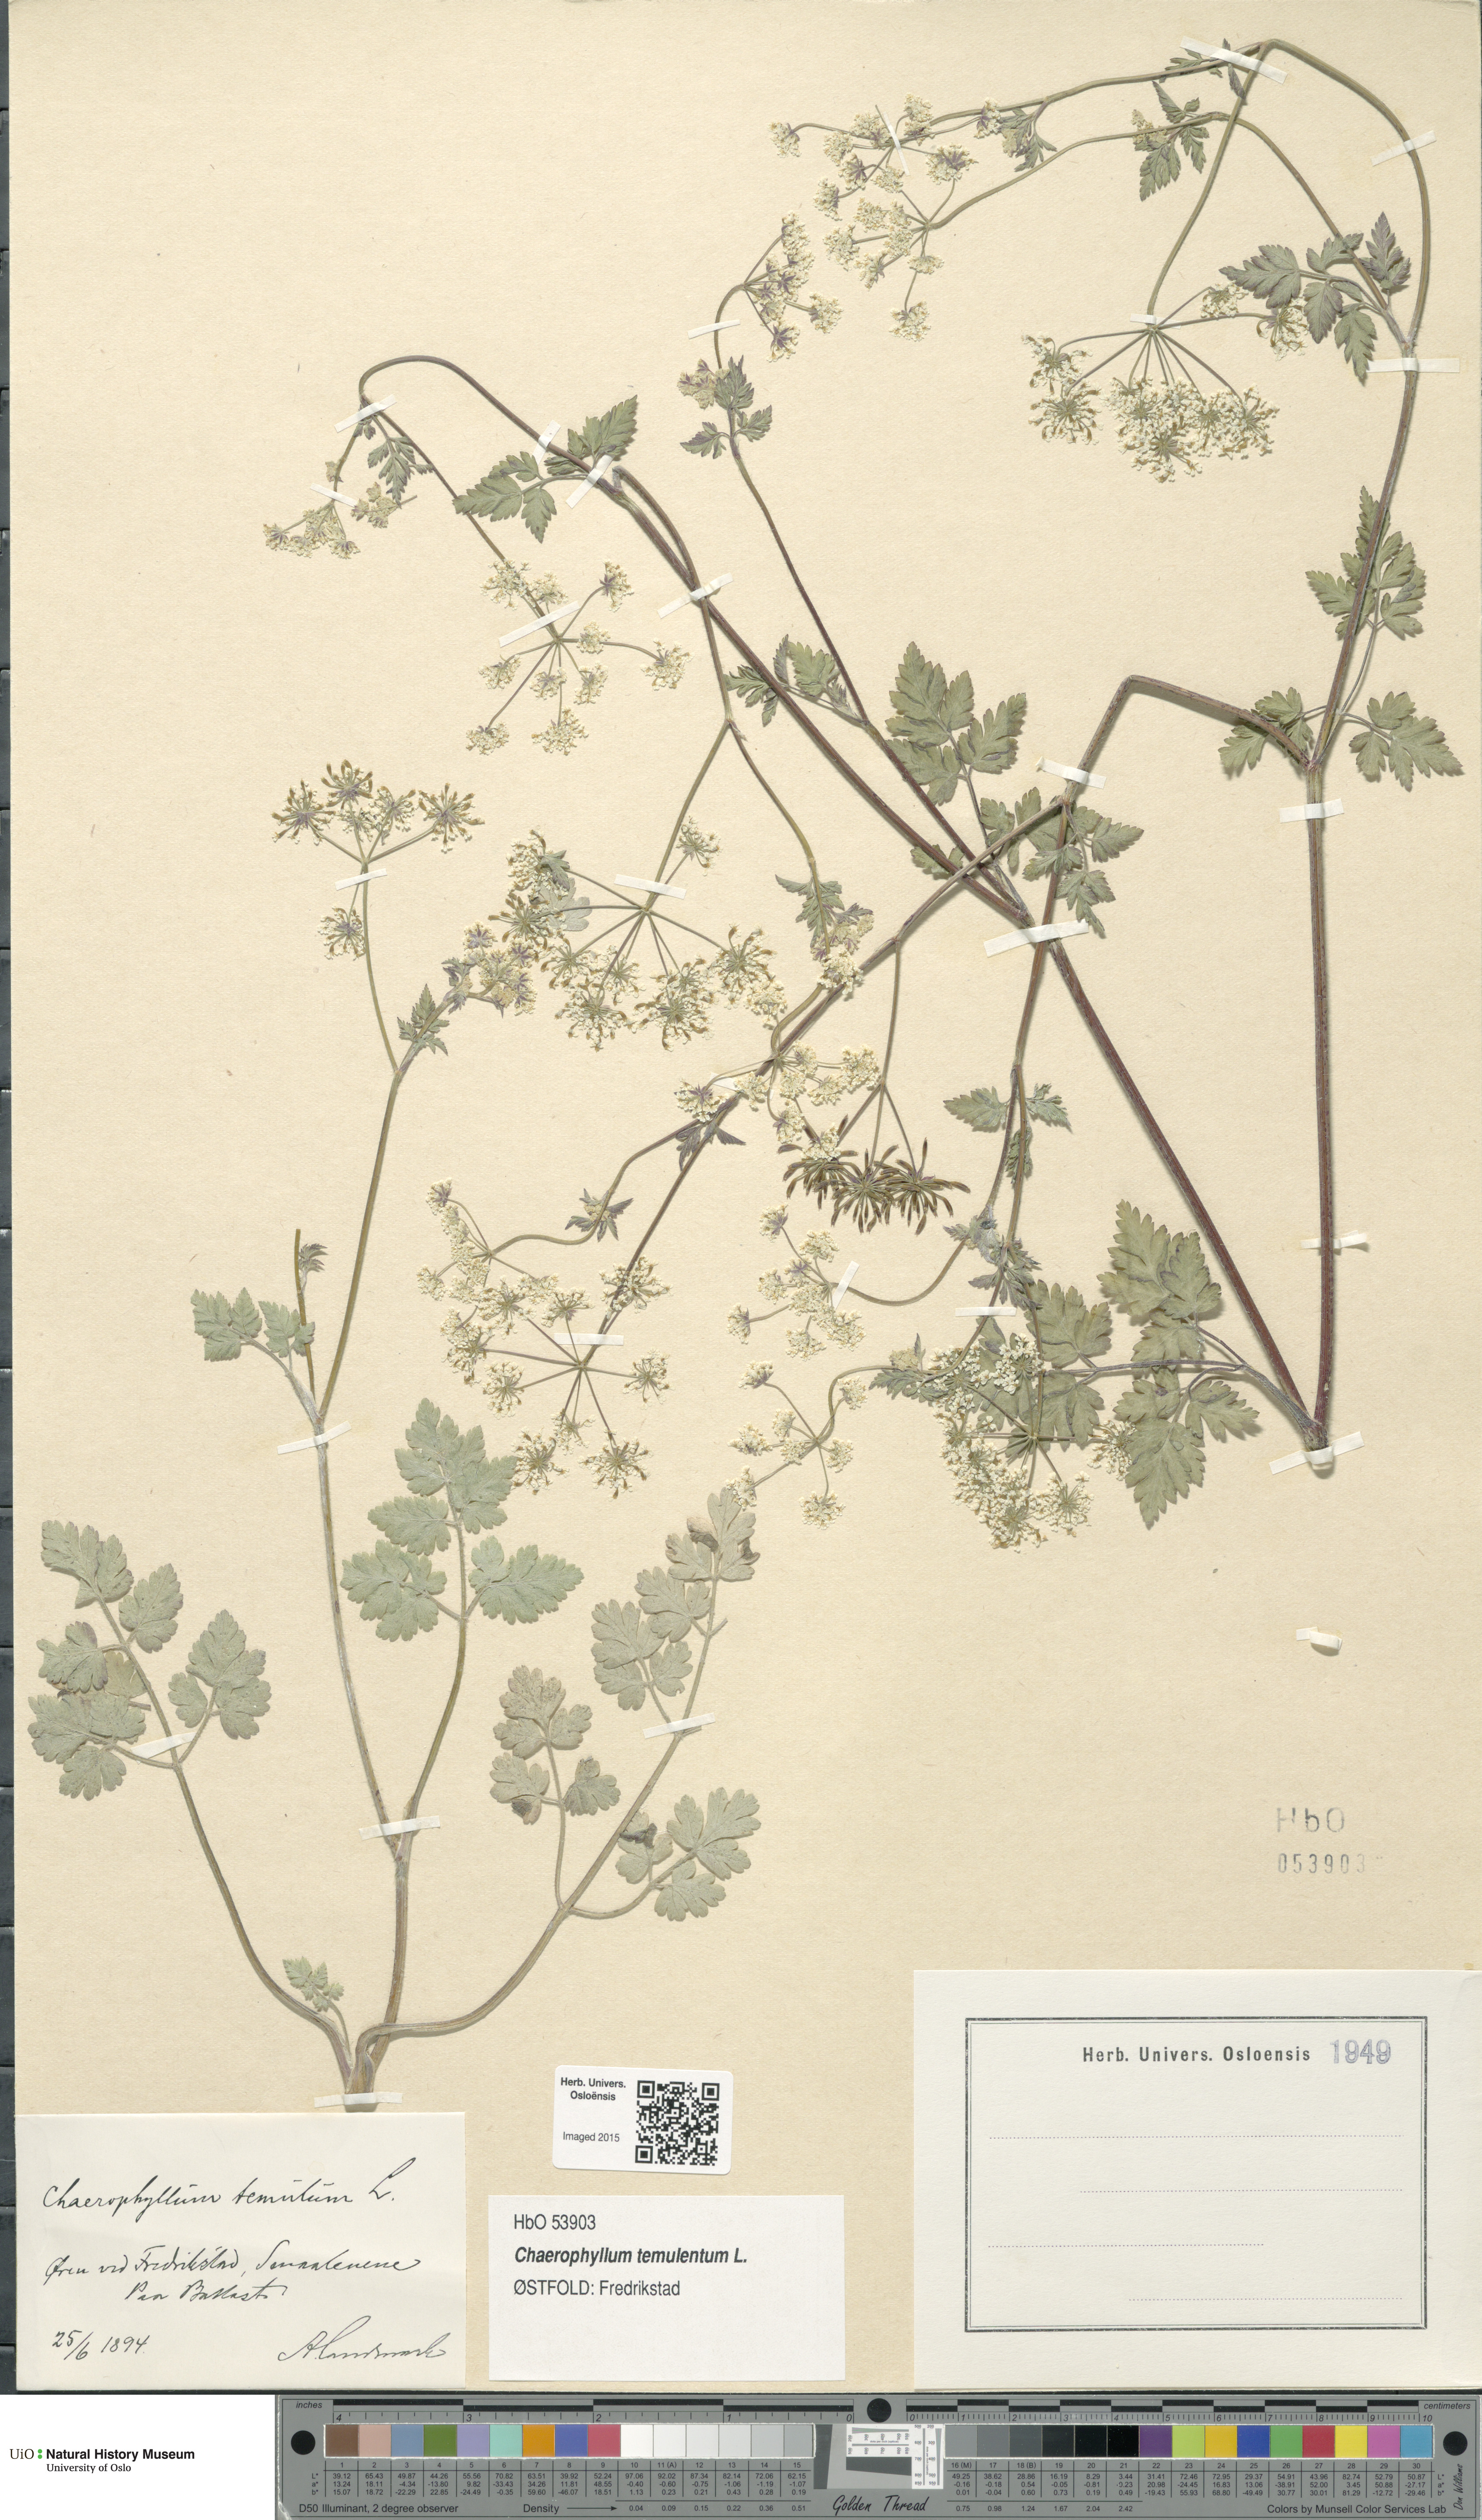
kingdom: Plantae
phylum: Tracheophyta
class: Magnoliopsida
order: Apiales
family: Apiaceae
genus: Chaerophyllum
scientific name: Chaerophyllum temulum
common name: Rough chervil
